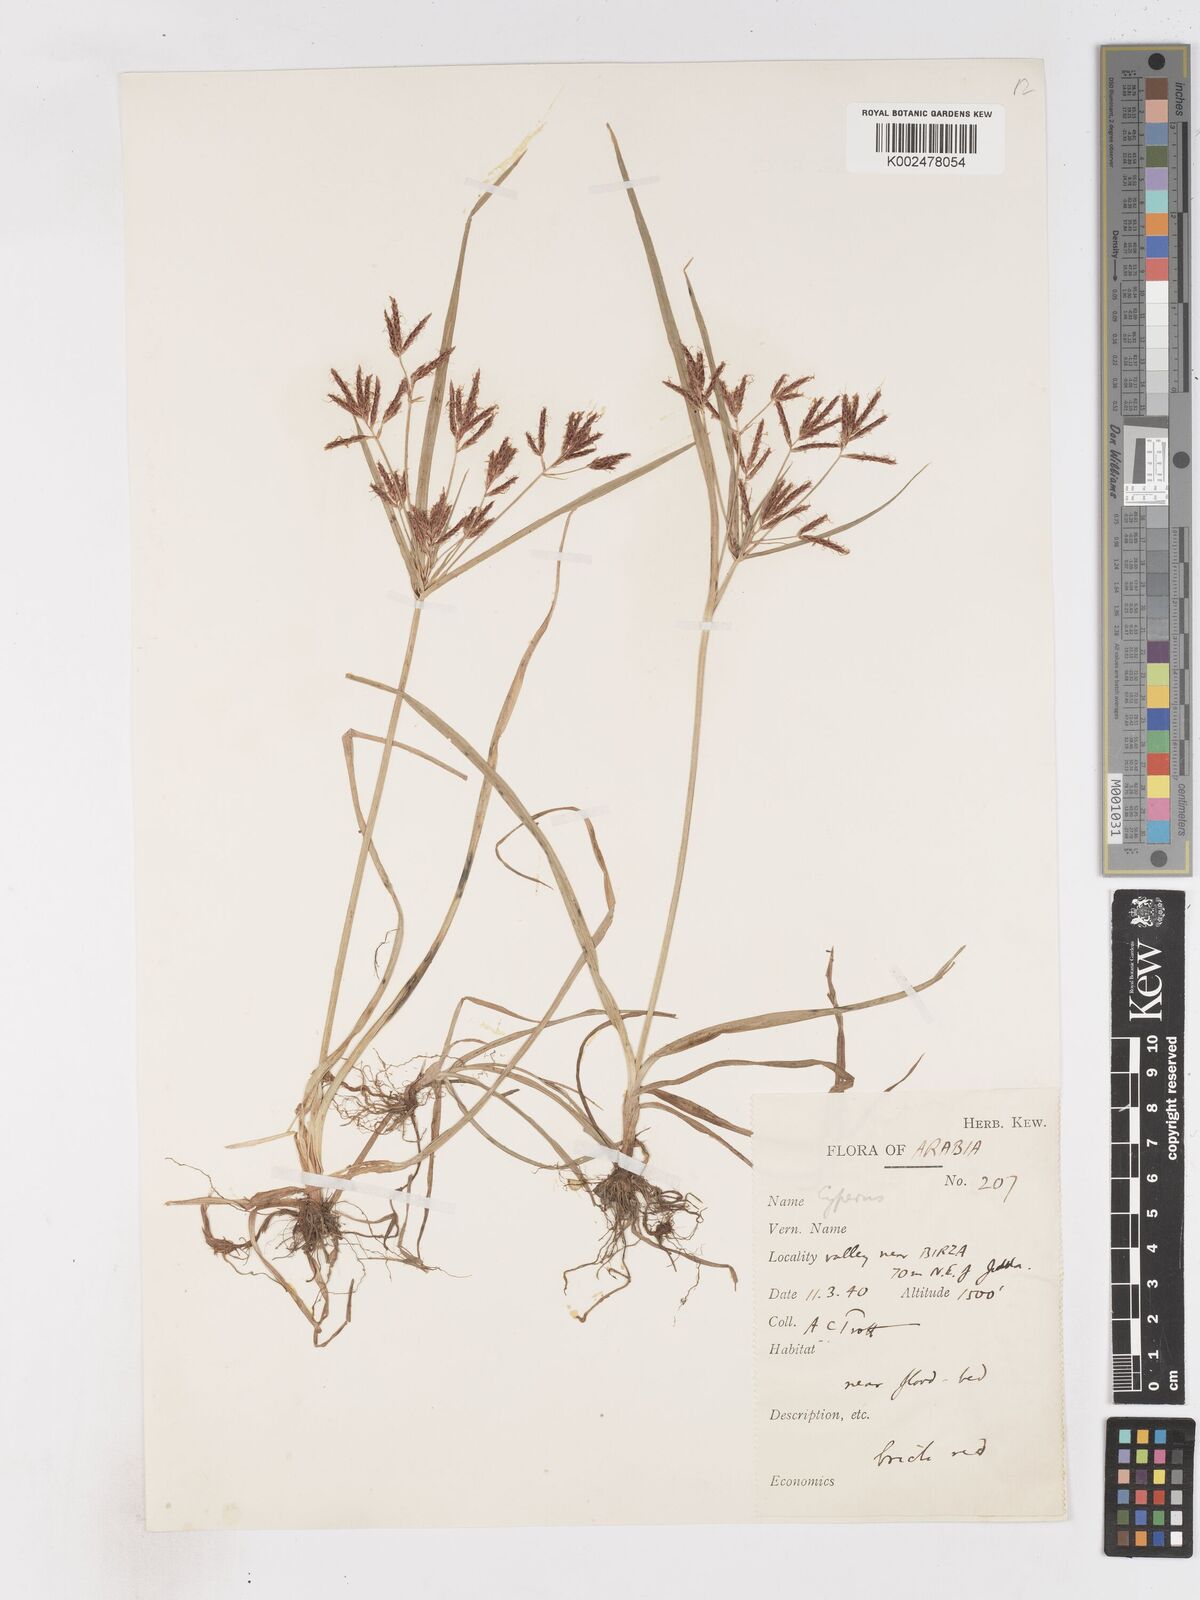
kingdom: Plantae
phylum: Tracheophyta
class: Liliopsida
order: Poales
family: Cyperaceae
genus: Cyperus
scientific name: Cyperus rotundus
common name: Nutgrass
